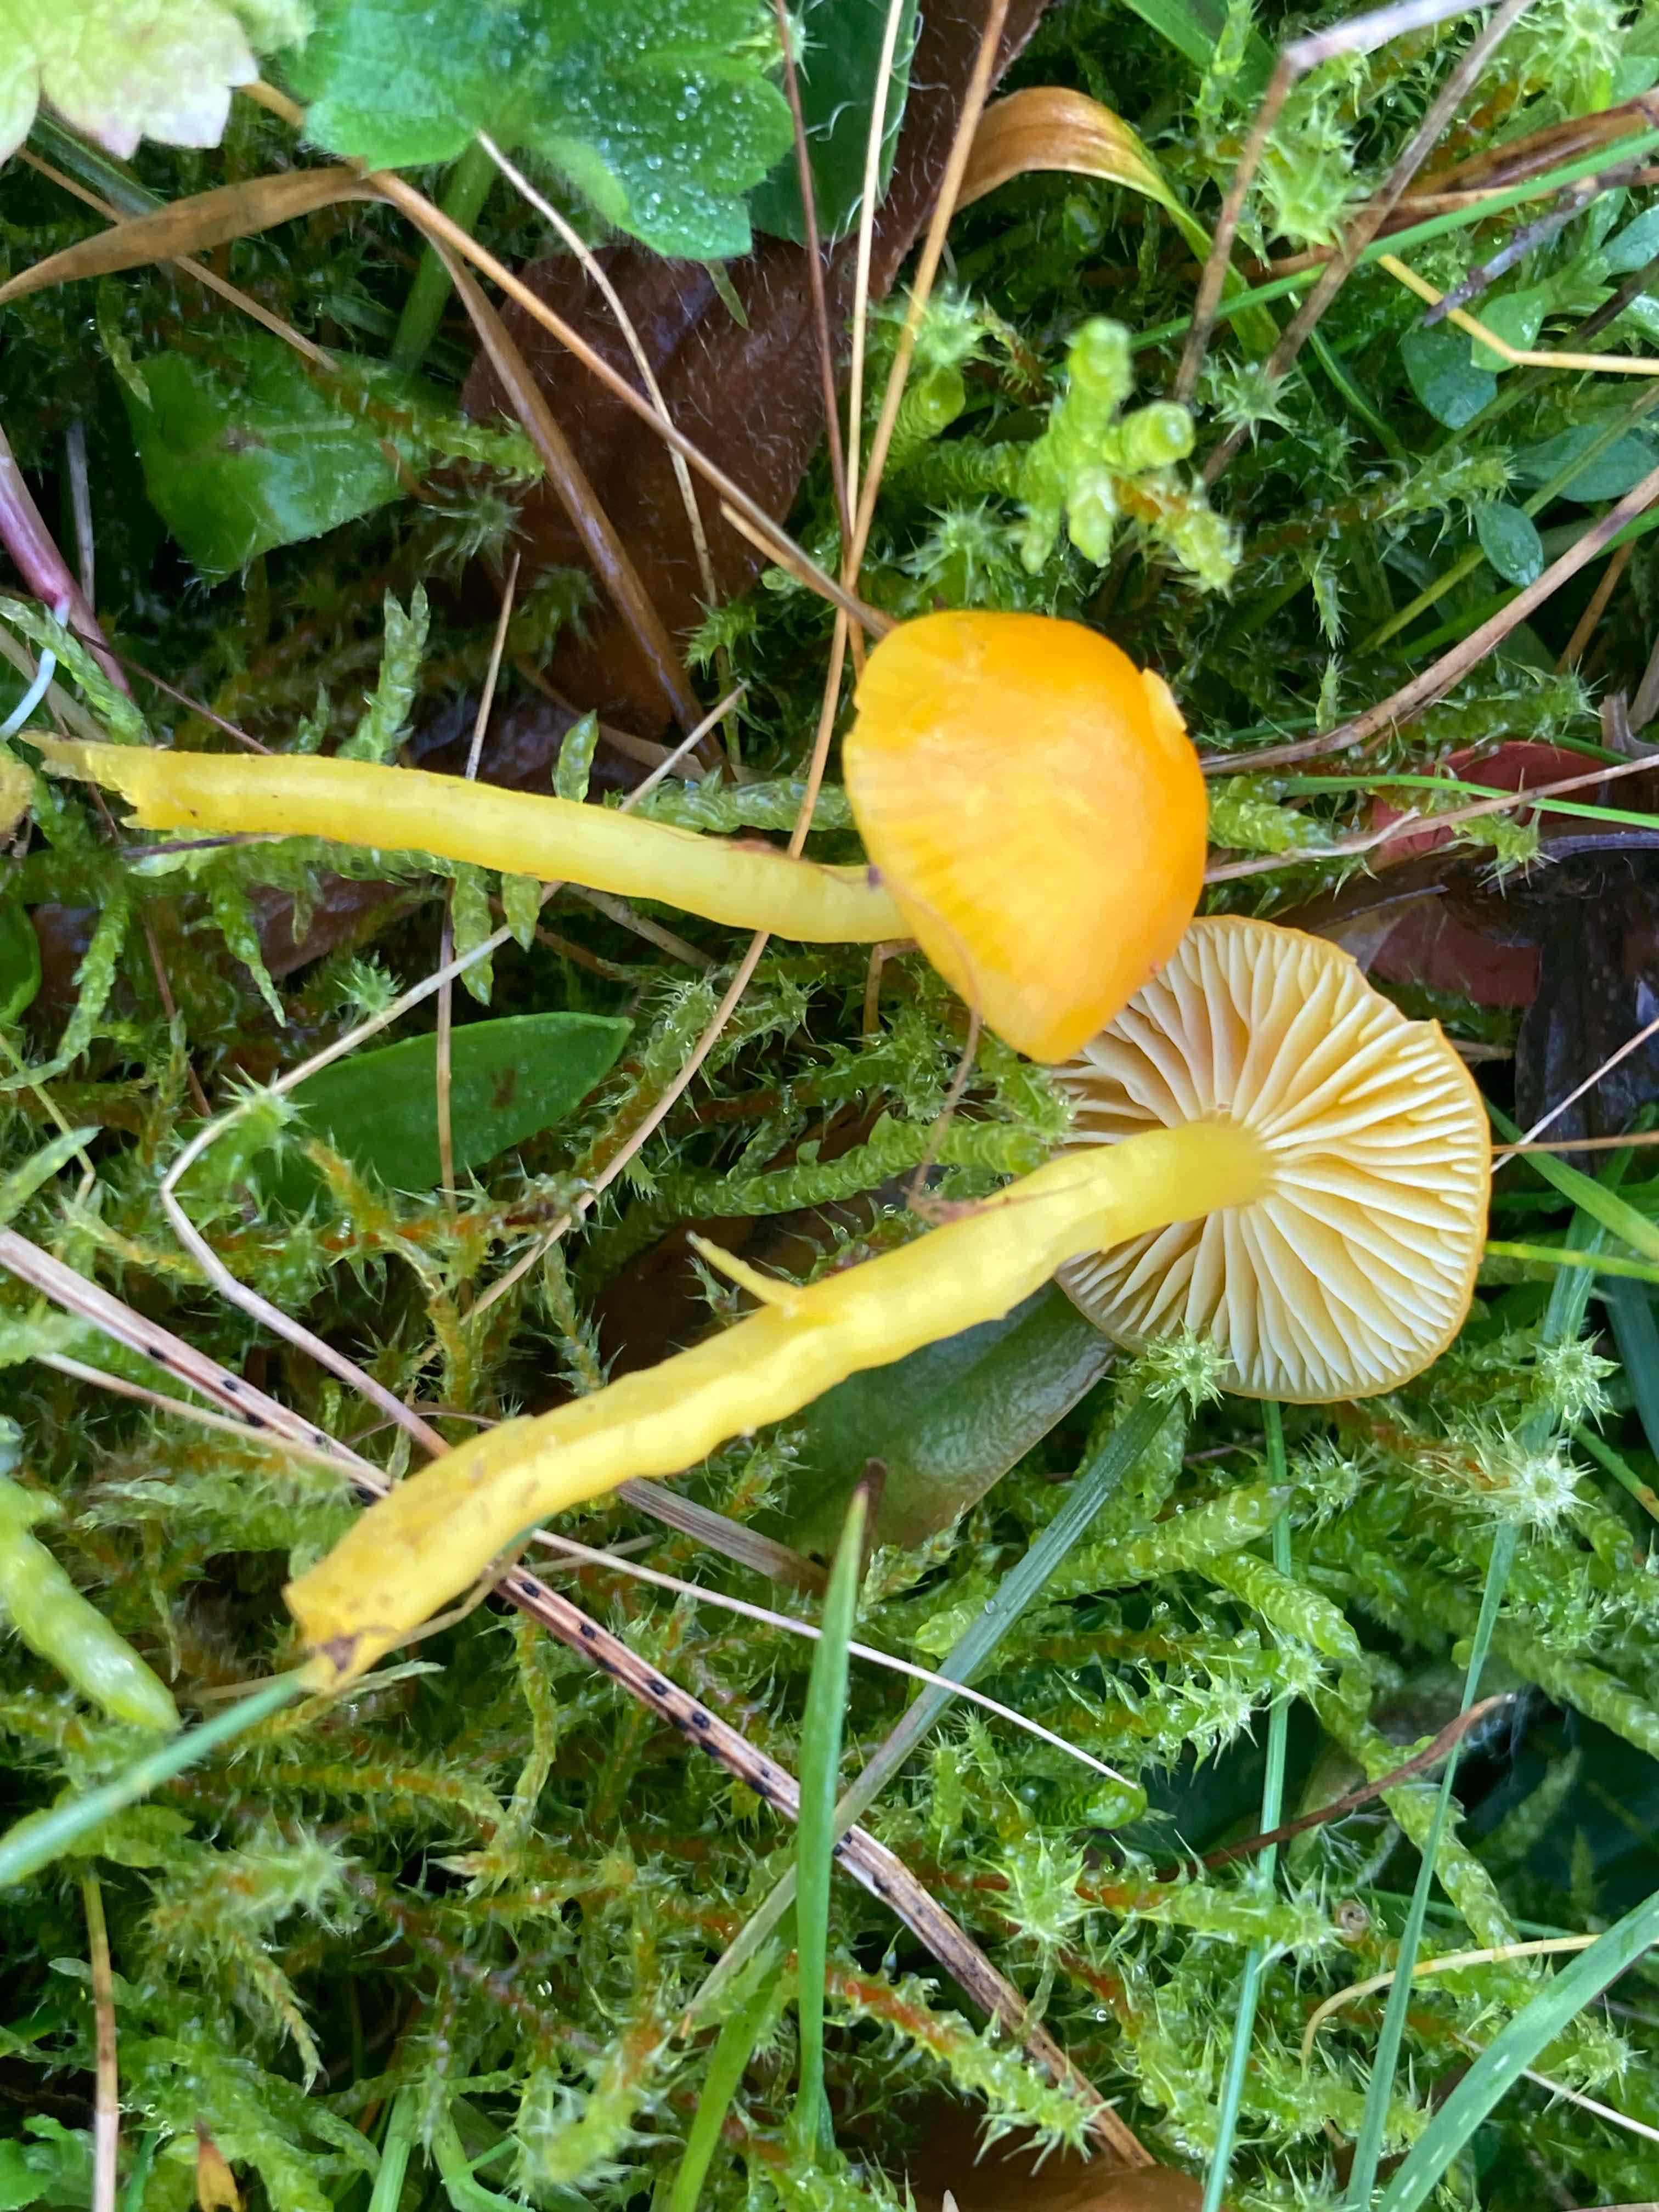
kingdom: Fungi
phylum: Basidiomycota
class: Agaricomycetes
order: Agaricales
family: Hygrophoraceae
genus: Hygrocybe
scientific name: Hygrocybe ceracea
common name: voksgul vokshat
